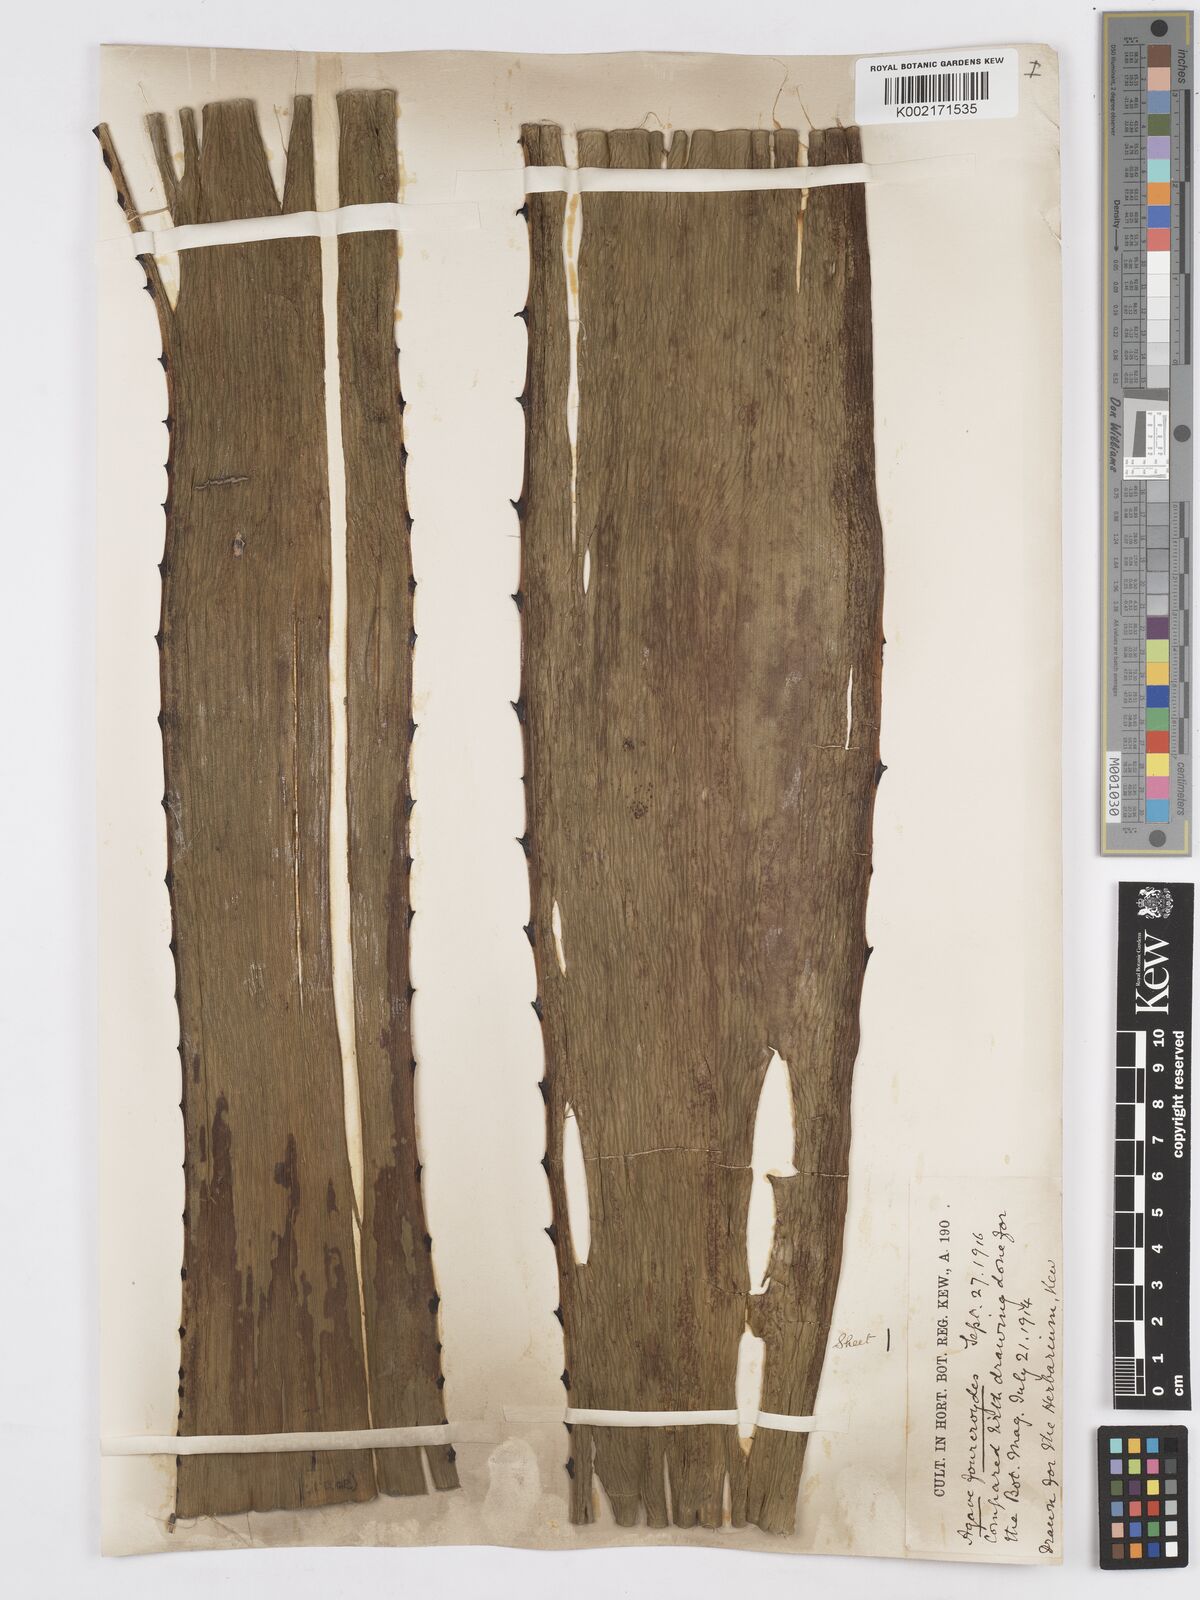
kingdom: Plantae
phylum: Tracheophyta
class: Liliopsida
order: Asparagales
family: Asparagaceae
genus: Agave
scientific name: Agave fourcroydes
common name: Henequen
